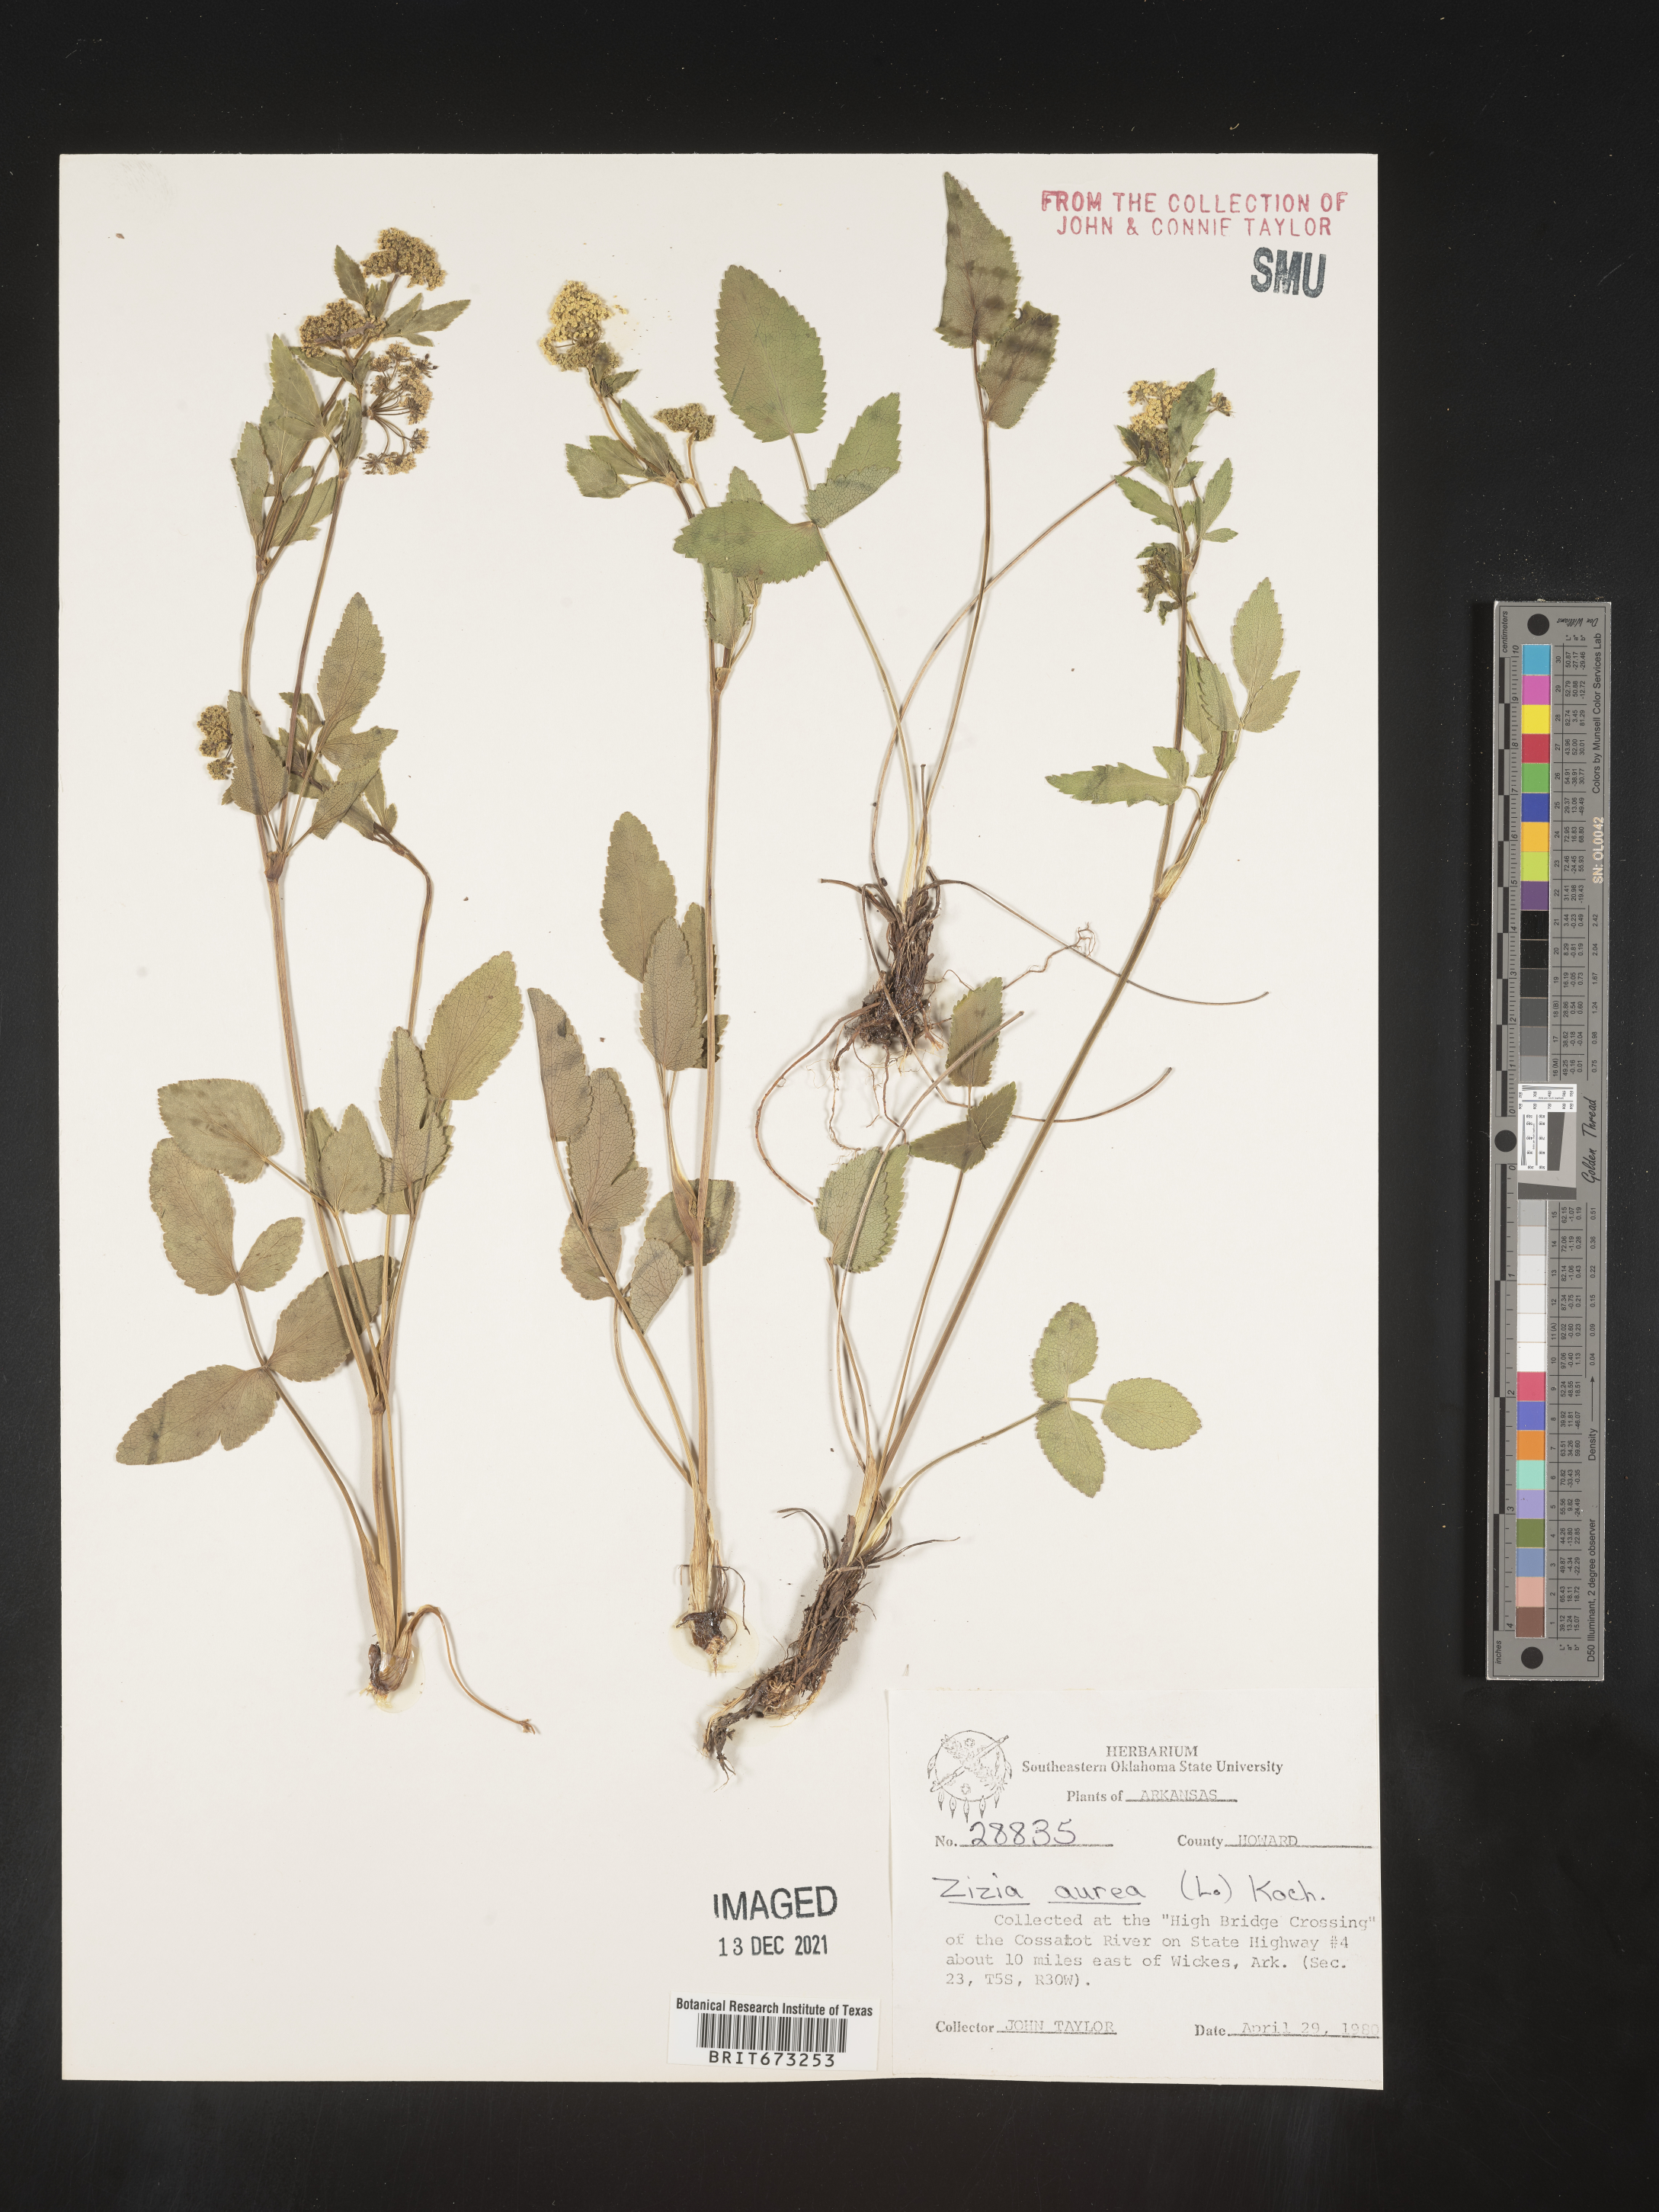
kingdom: Plantae
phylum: Tracheophyta
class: Magnoliopsida
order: Apiales
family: Apiaceae
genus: Zizia
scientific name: Zizia aurea
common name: Golden alexanders
